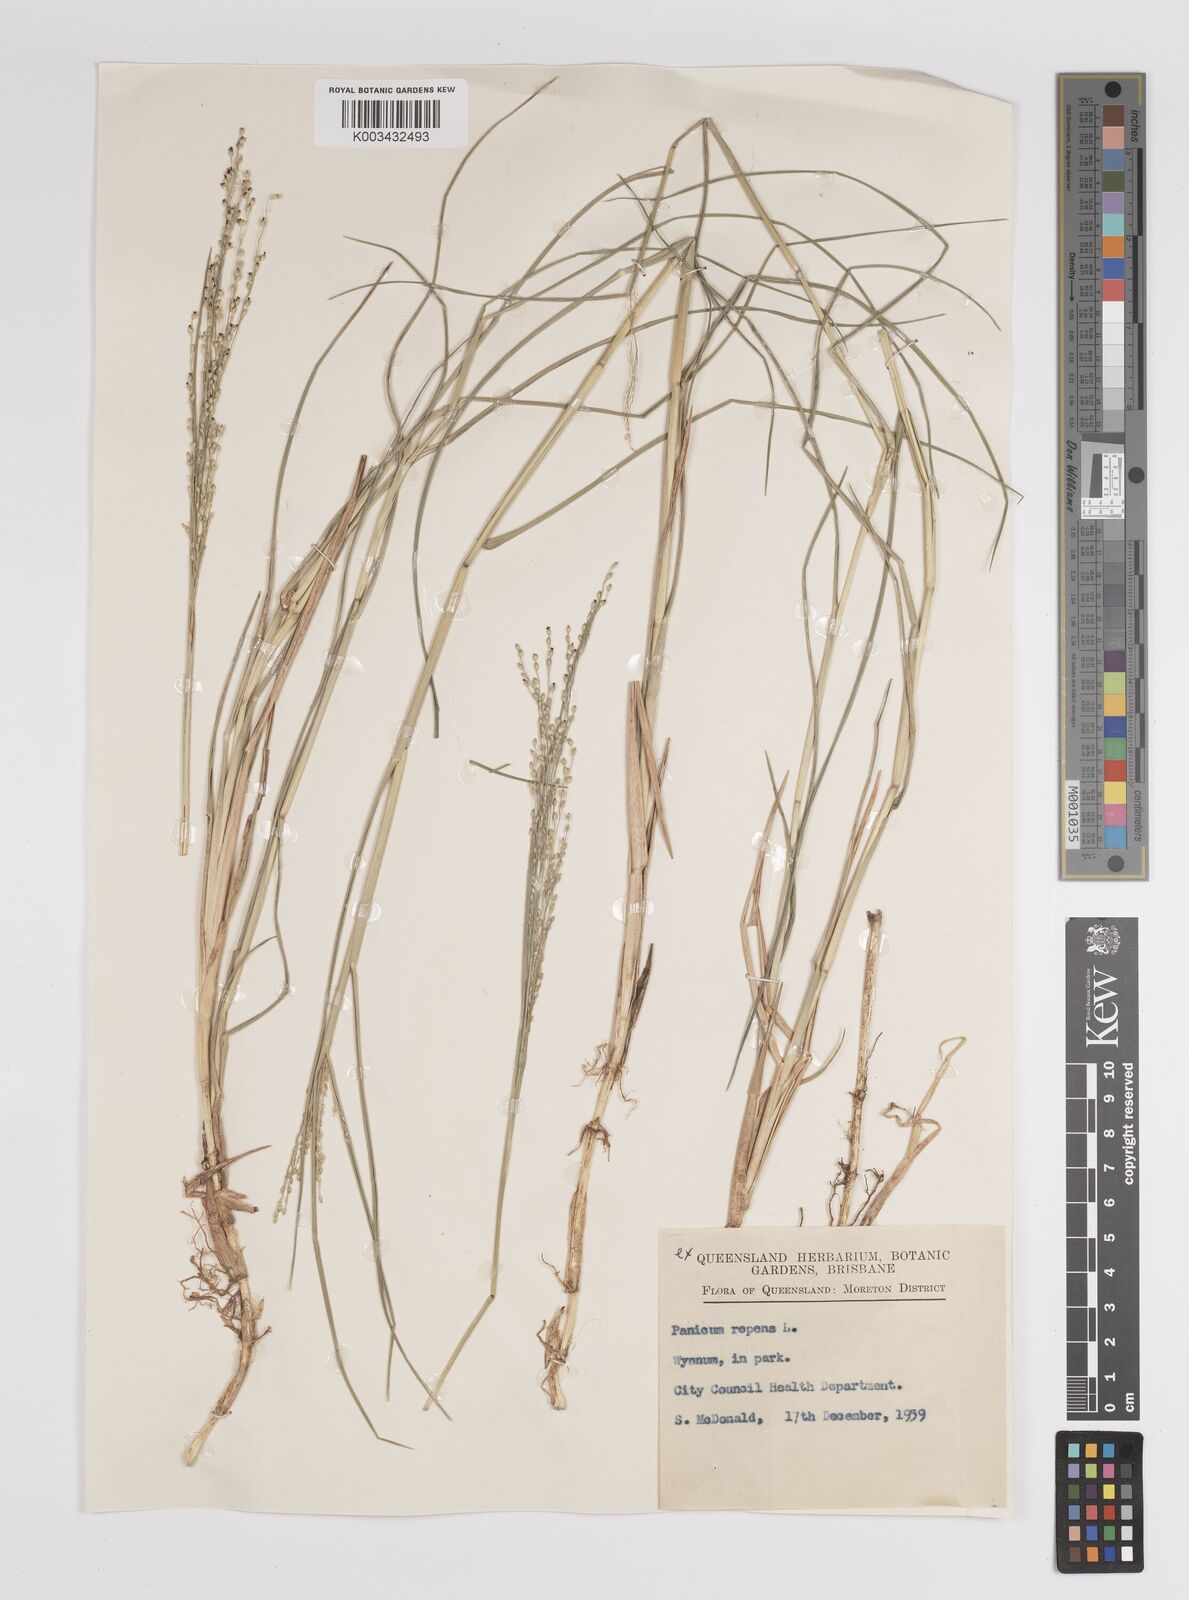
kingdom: Plantae
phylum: Tracheophyta
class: Liliopsida
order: Poales
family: Poaceae
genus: Panicum
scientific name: Panicum repens
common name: Torpedo grass
